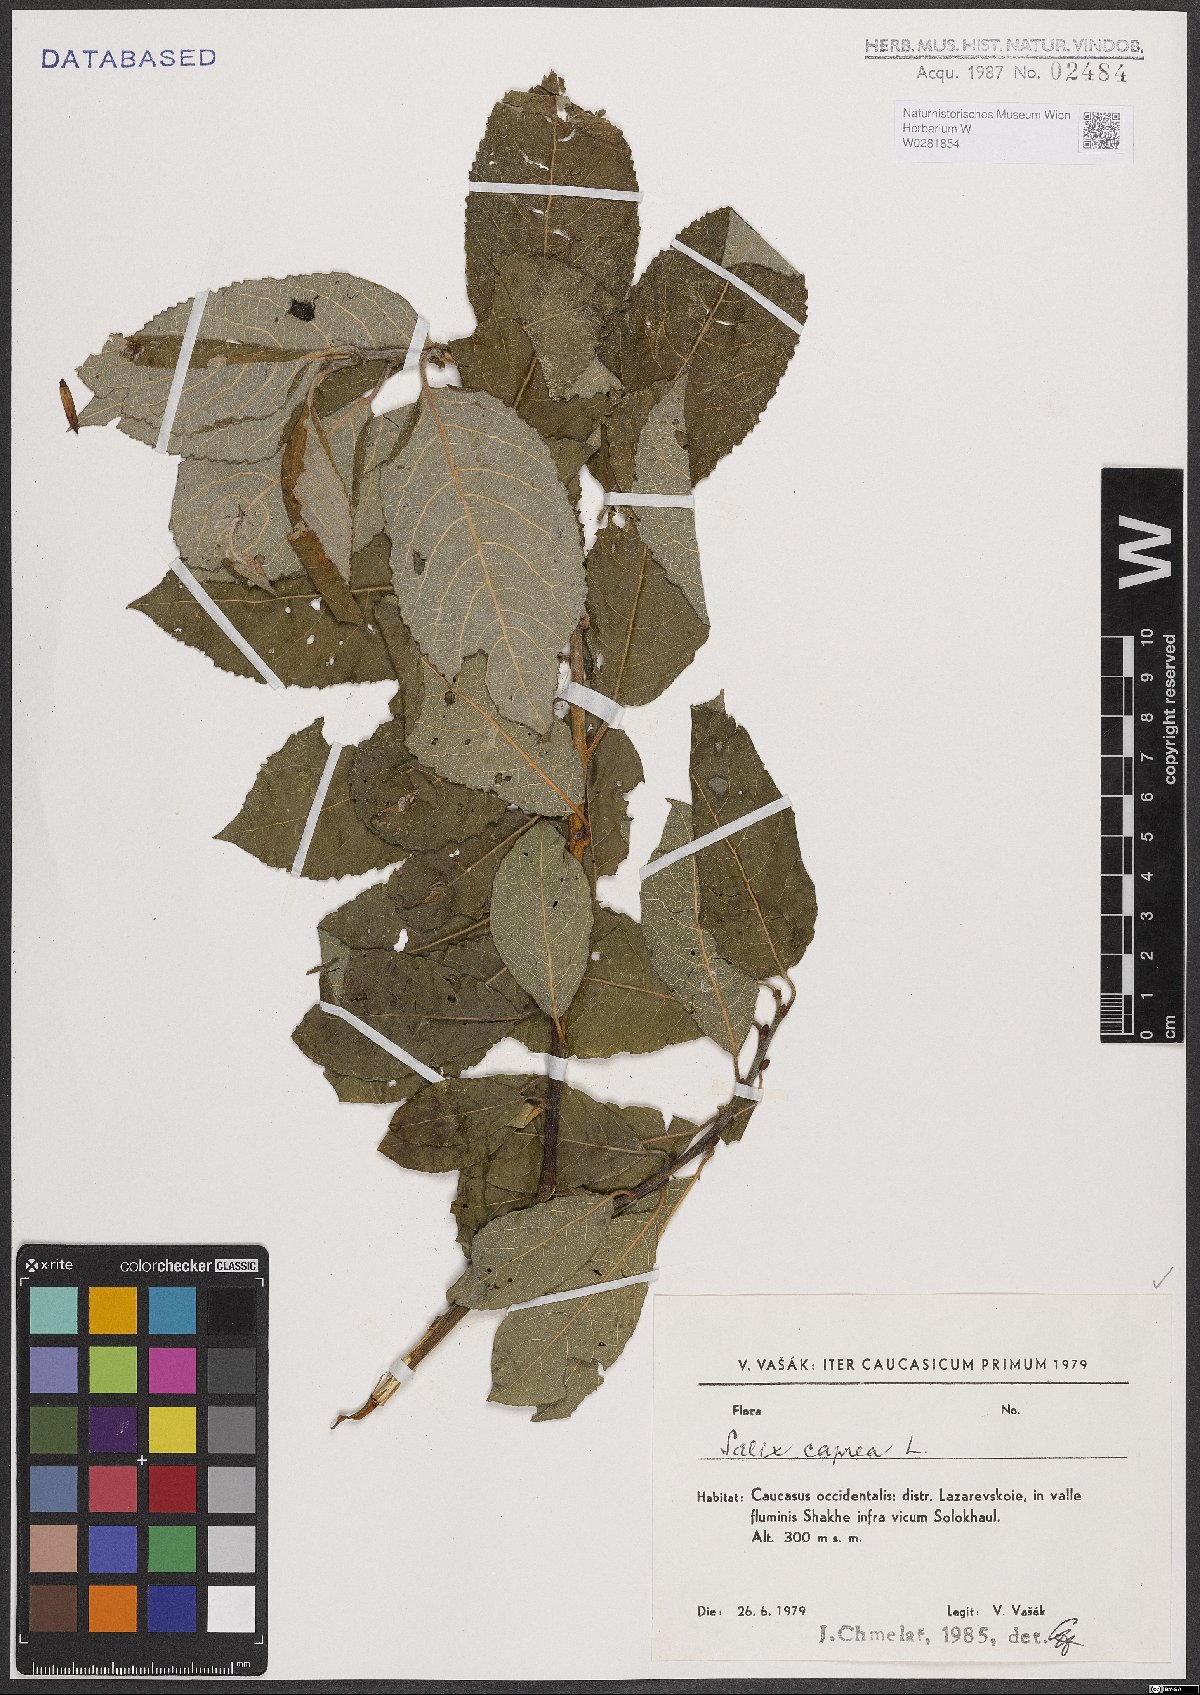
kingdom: Plantae
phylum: Tracheophyta
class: Magnoliopsida
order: Malpighiales
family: Salicaceae
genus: Salix
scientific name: Salix caprea
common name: Goat willow
